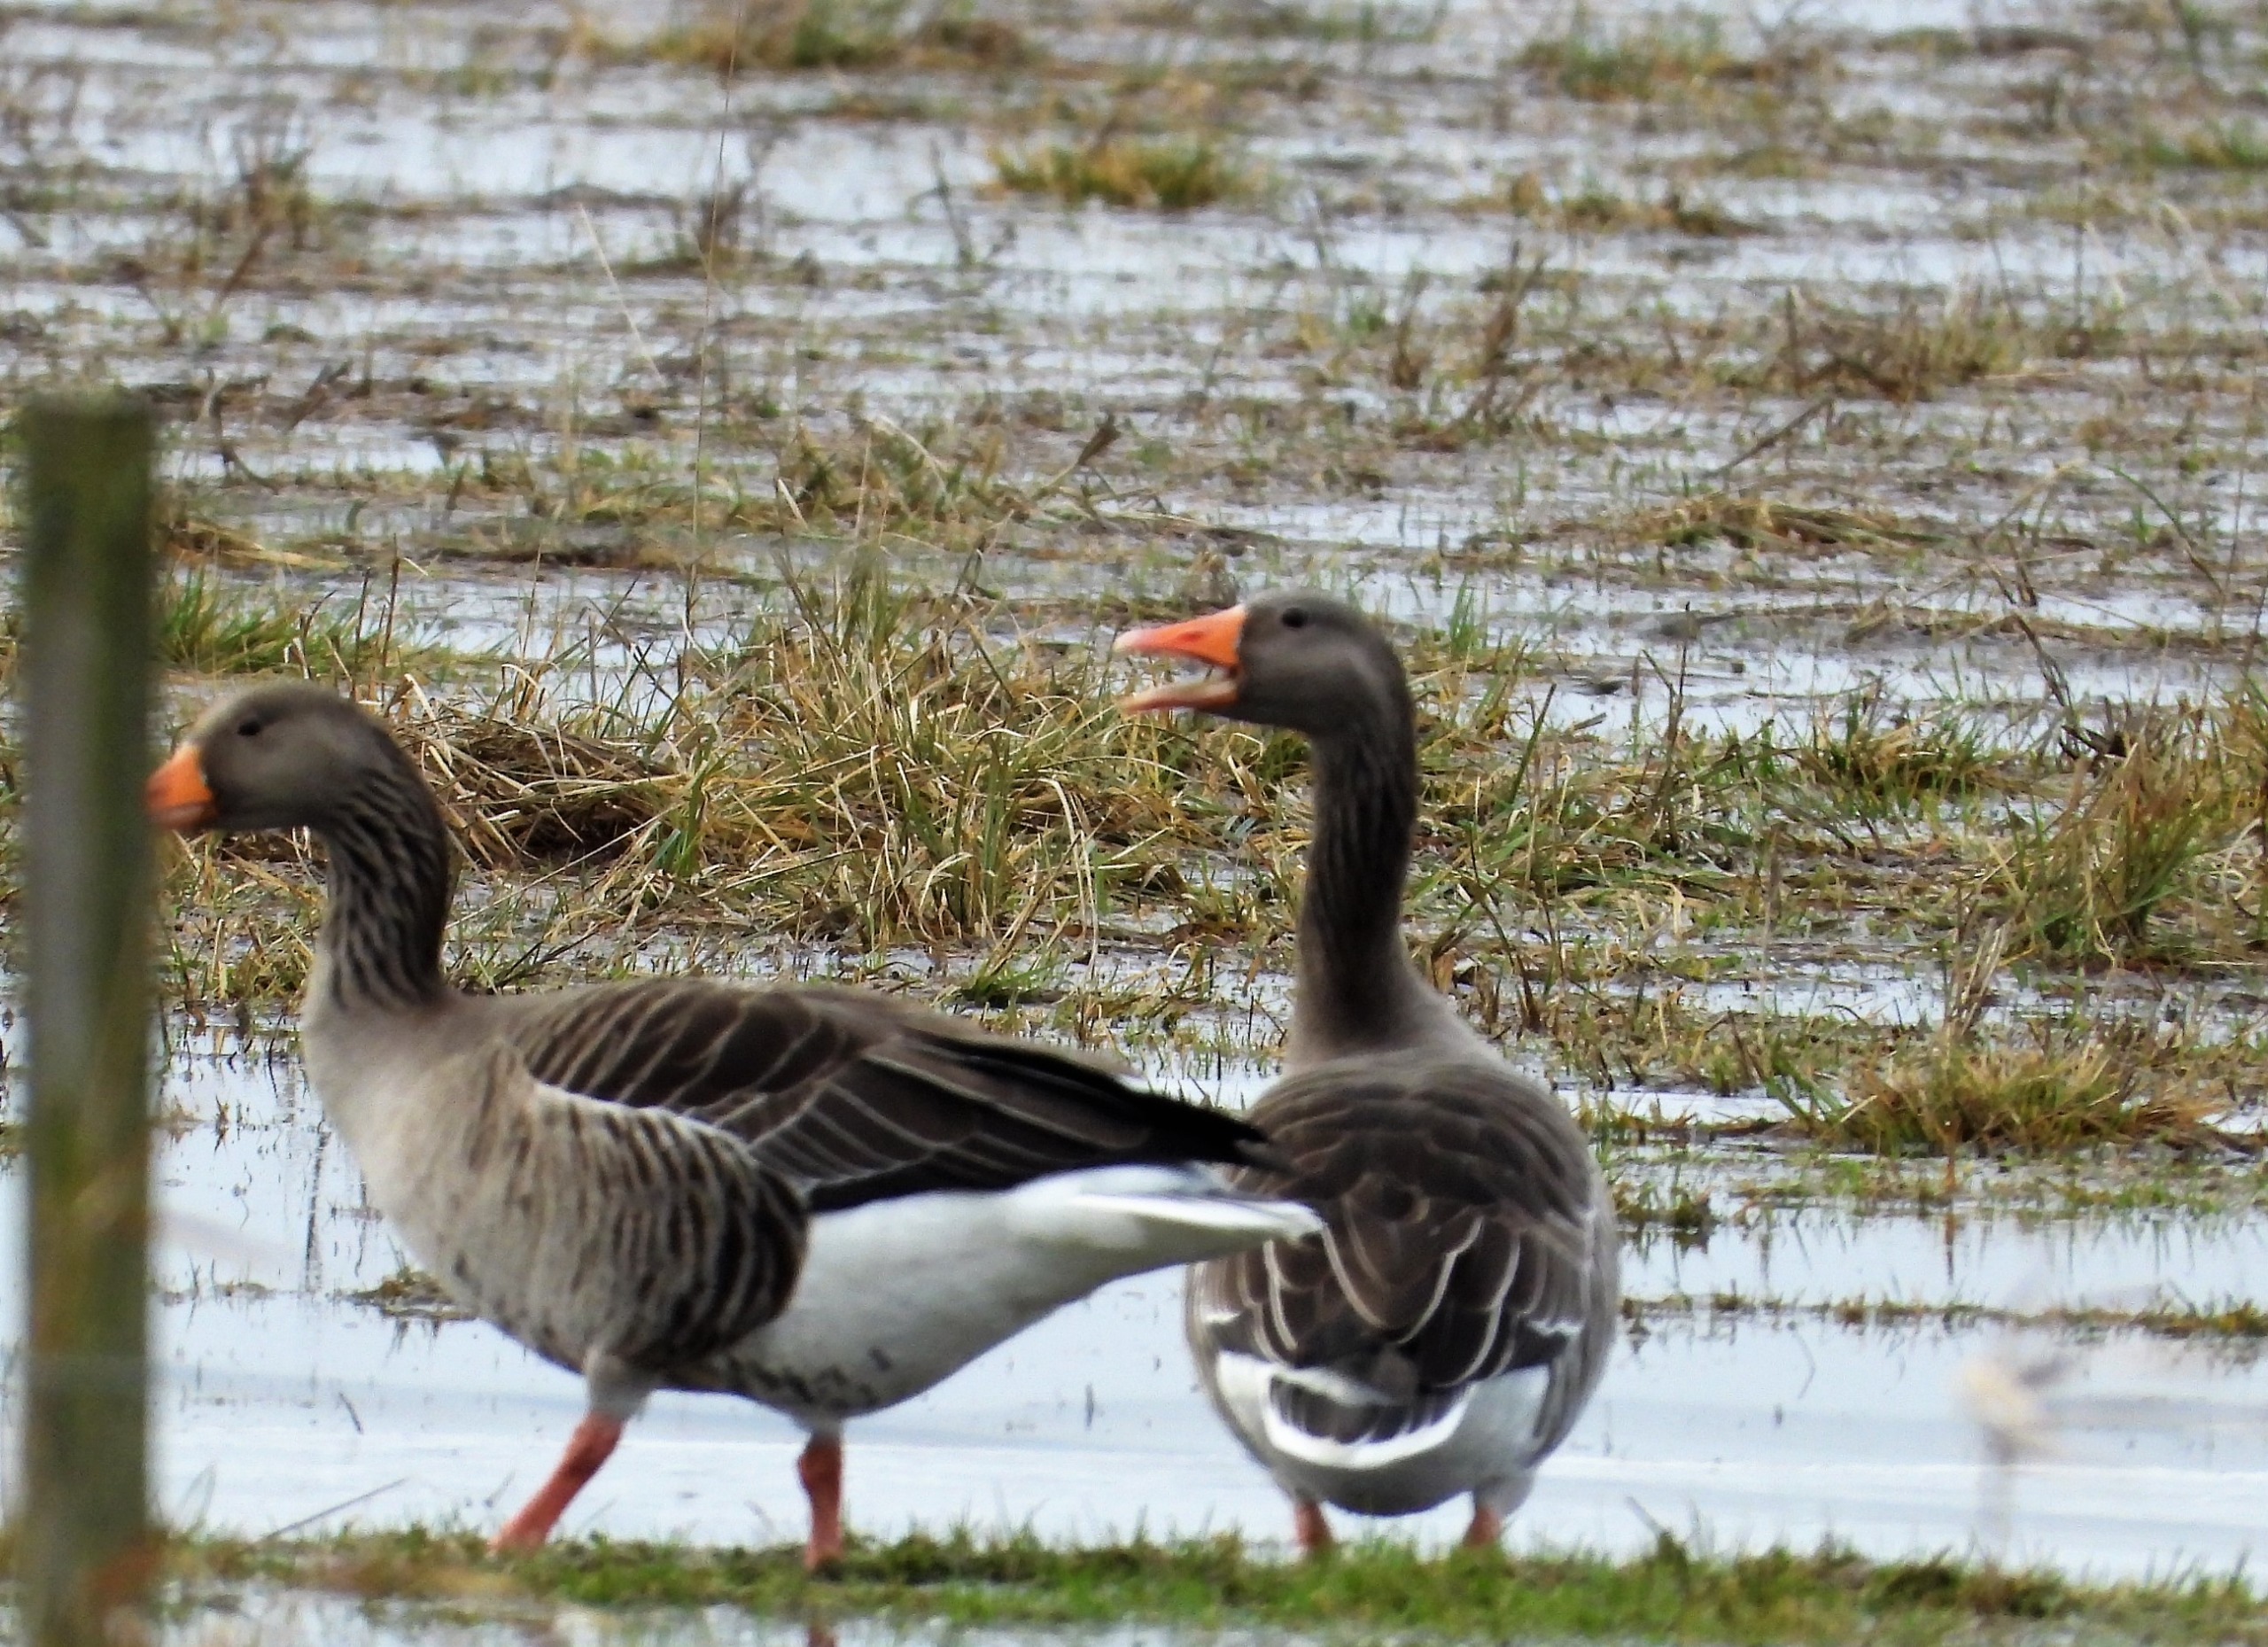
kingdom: Animalia
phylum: Chordata
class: Aves
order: Anseriformes
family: Anatidae
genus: Anser
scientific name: Anser anser
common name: Grågås
